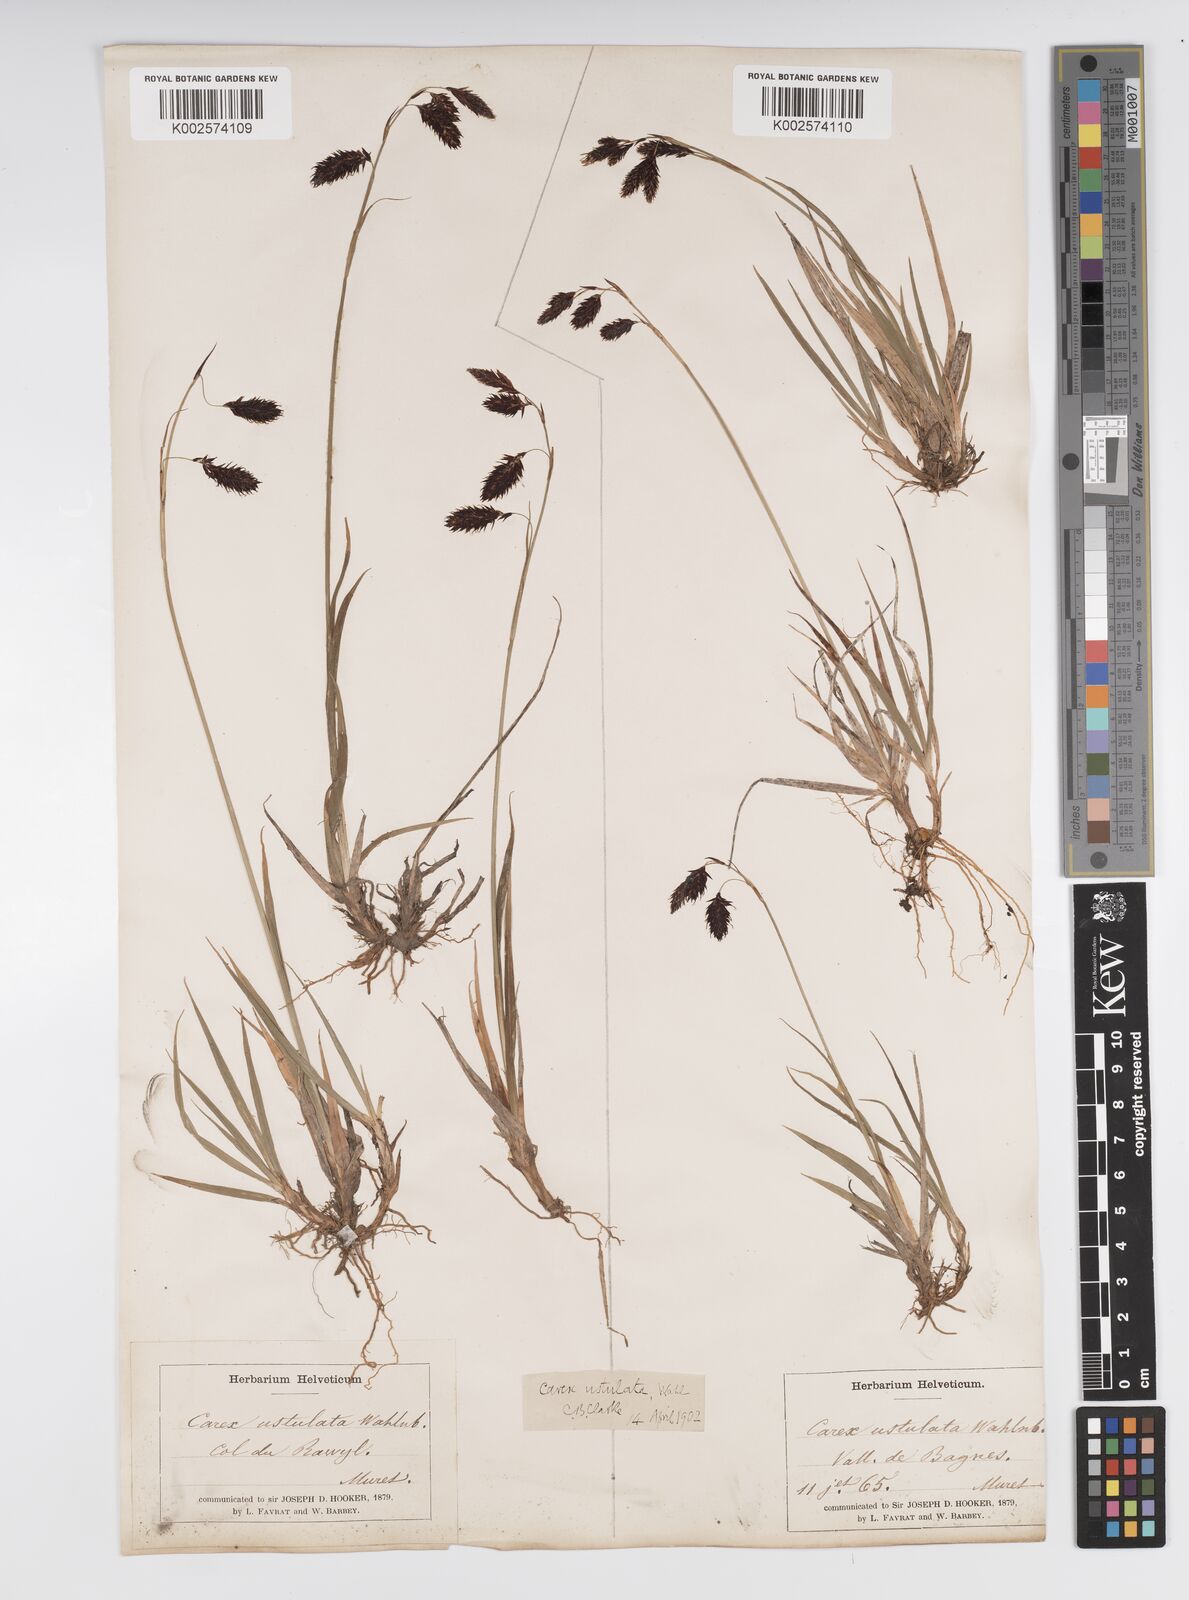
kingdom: Plantae
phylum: Tracheophyta
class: Liliopsida
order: Poales
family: Cyperaceae
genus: Carex
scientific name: Carex atrofusca
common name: Scorched alpine-sedge
